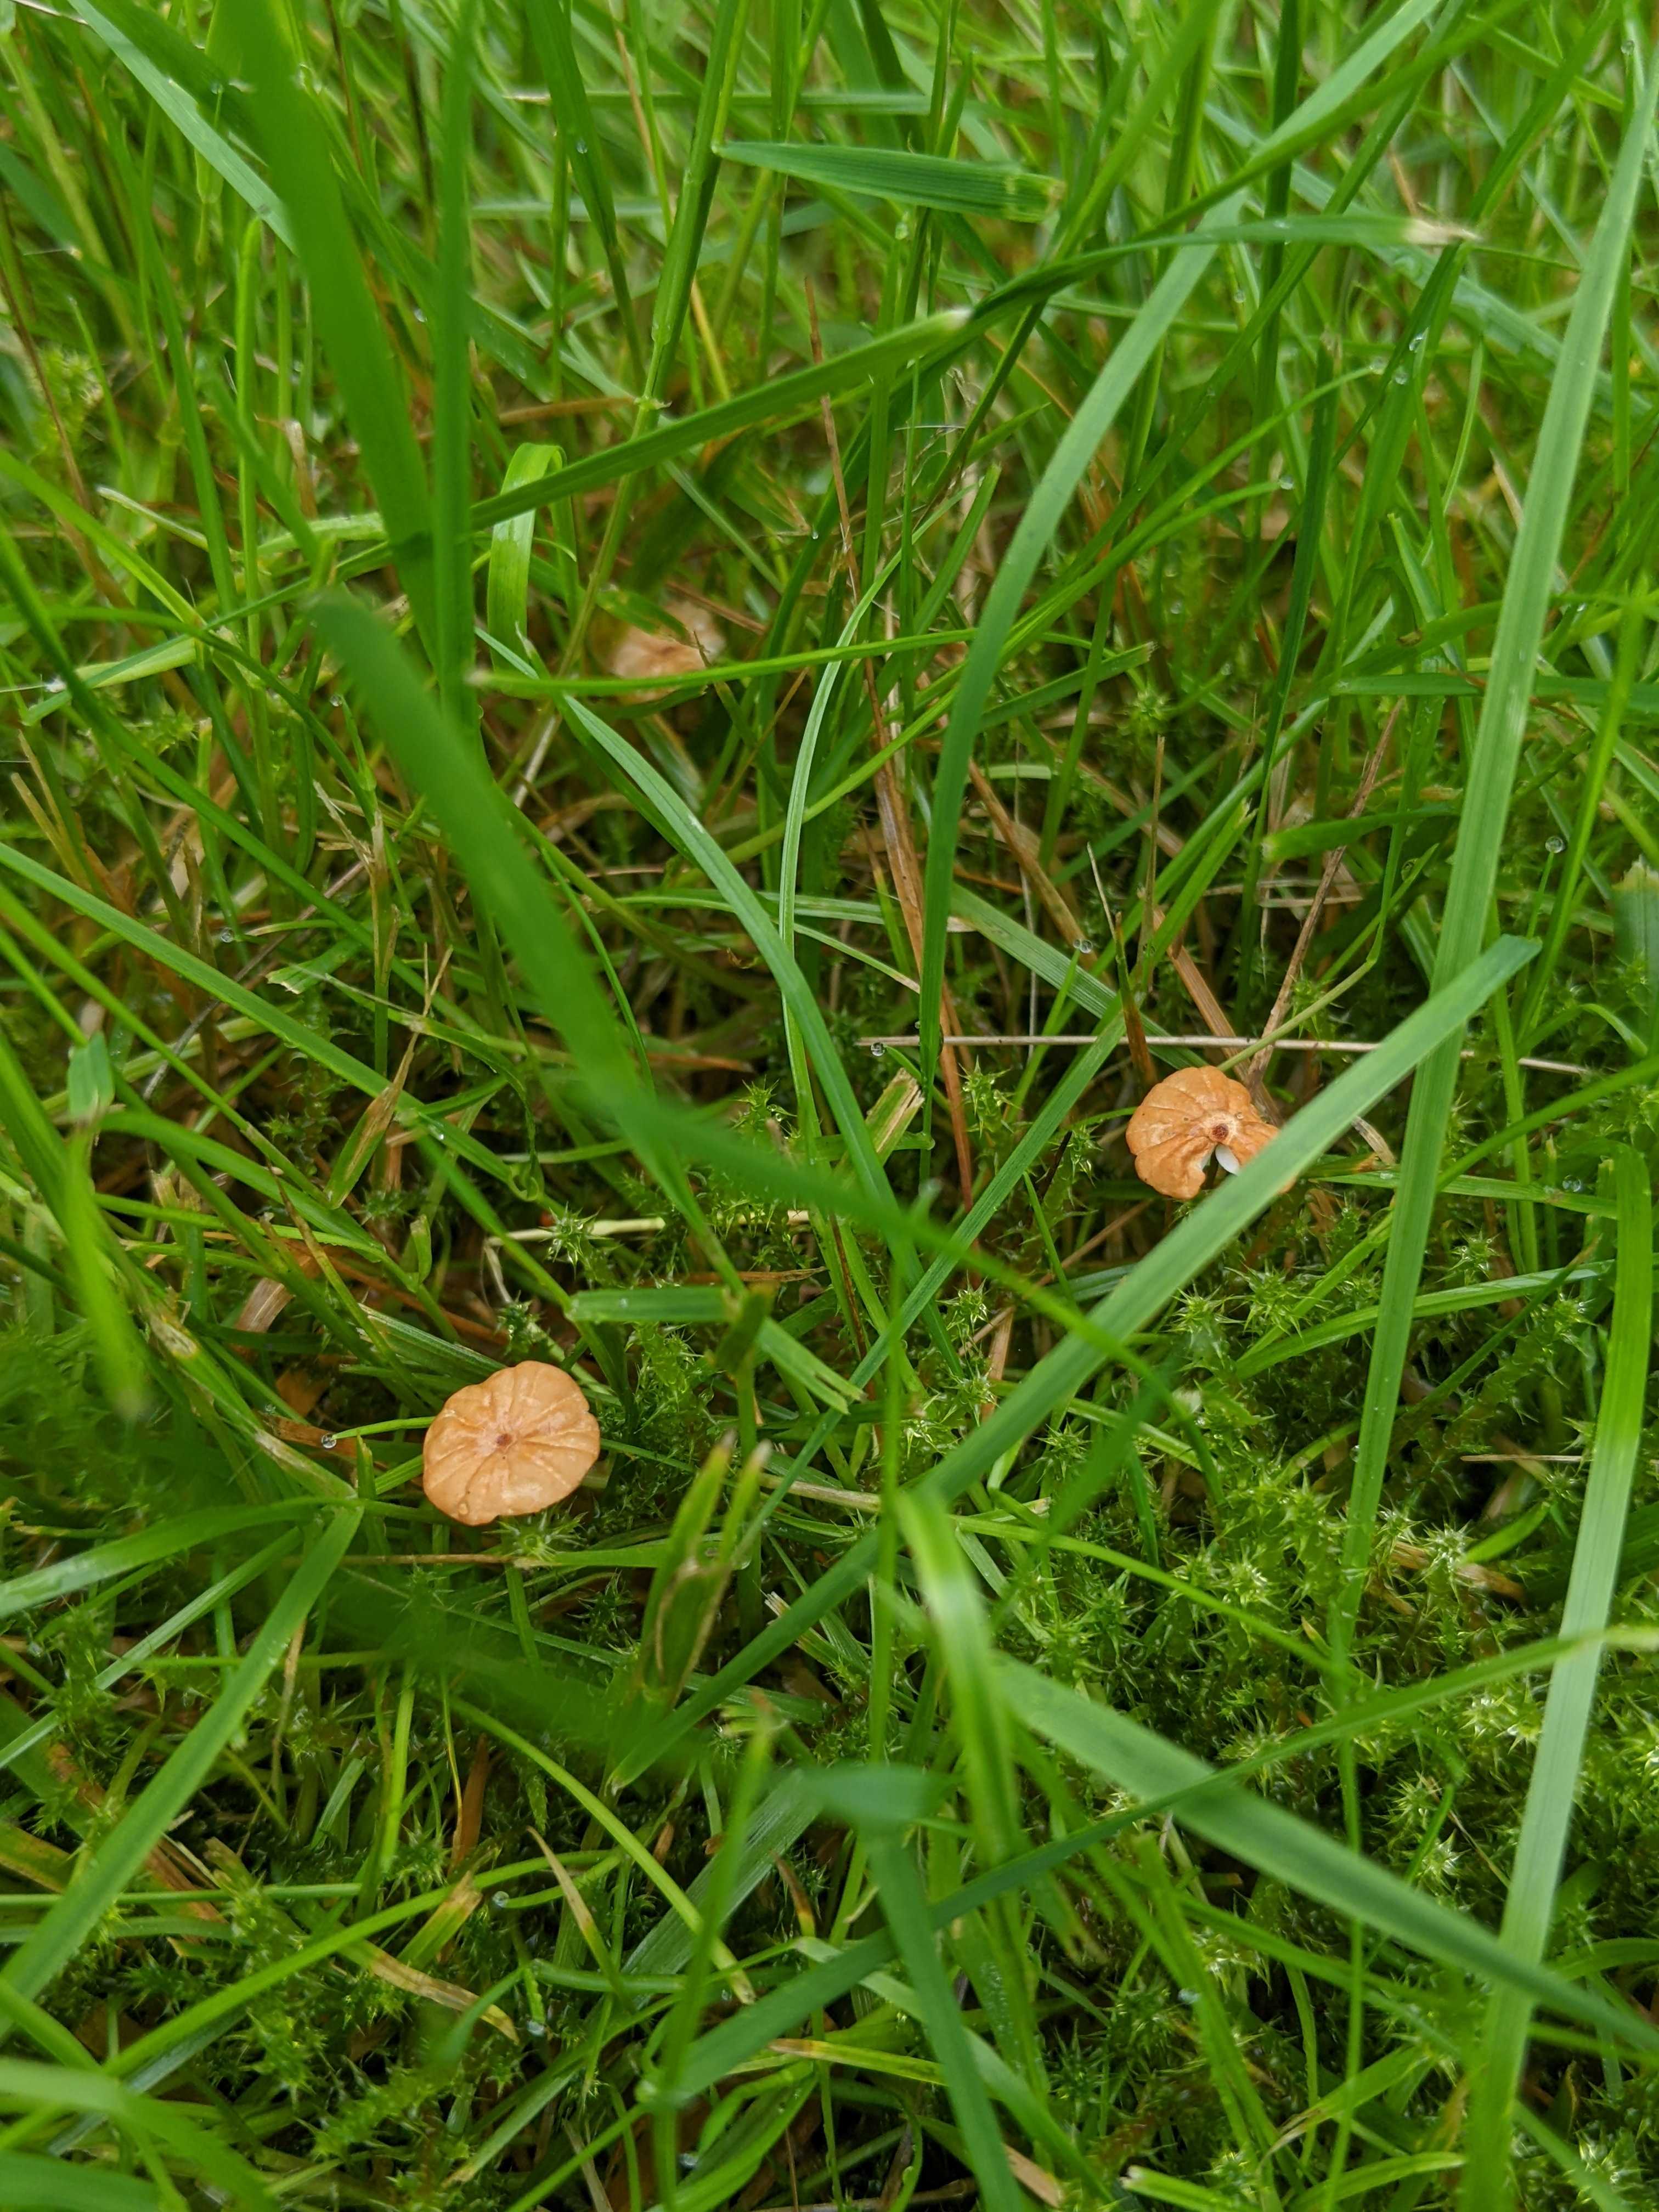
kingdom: Fungi
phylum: Basidiomycota
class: Agaricomycetes
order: Agaricales
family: Marasmiaceae
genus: Marasmius
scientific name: Marasmius curreyi
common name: teglrød bruskhat
